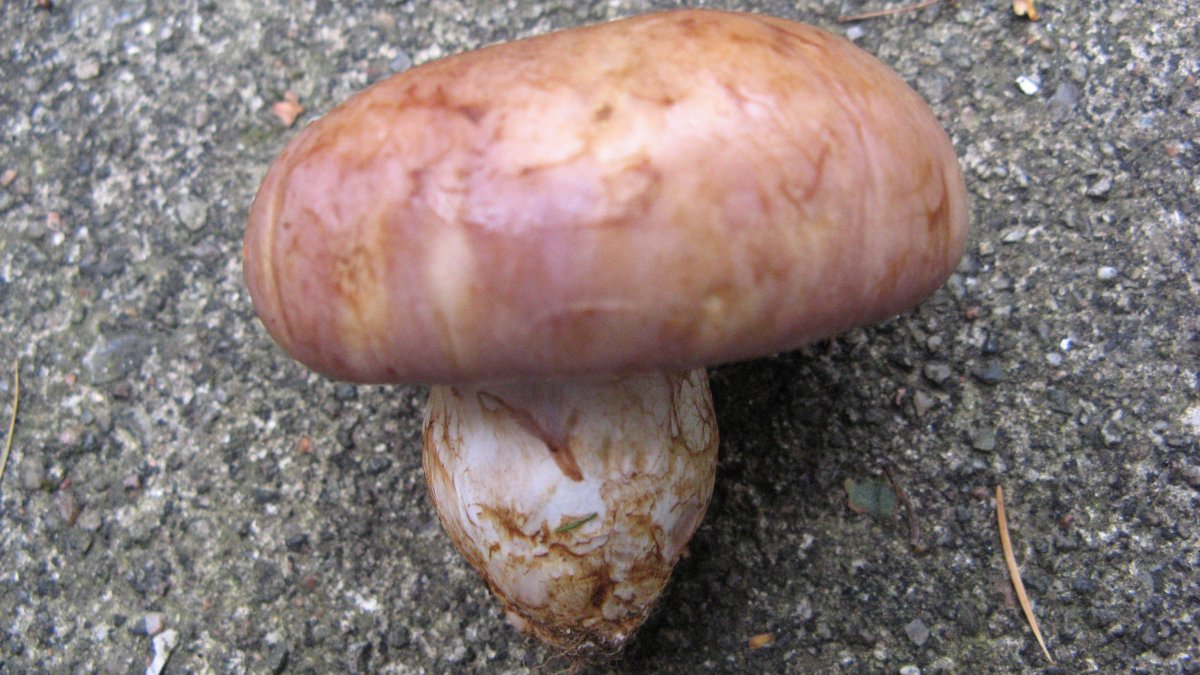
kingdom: Fungi
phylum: Basidiomycota
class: Agaricomycetes
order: Agaricales
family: Cortinariaceae
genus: Phlegmacium
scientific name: Phlegmacium balteatocumatile
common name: violettrådet slørhat
